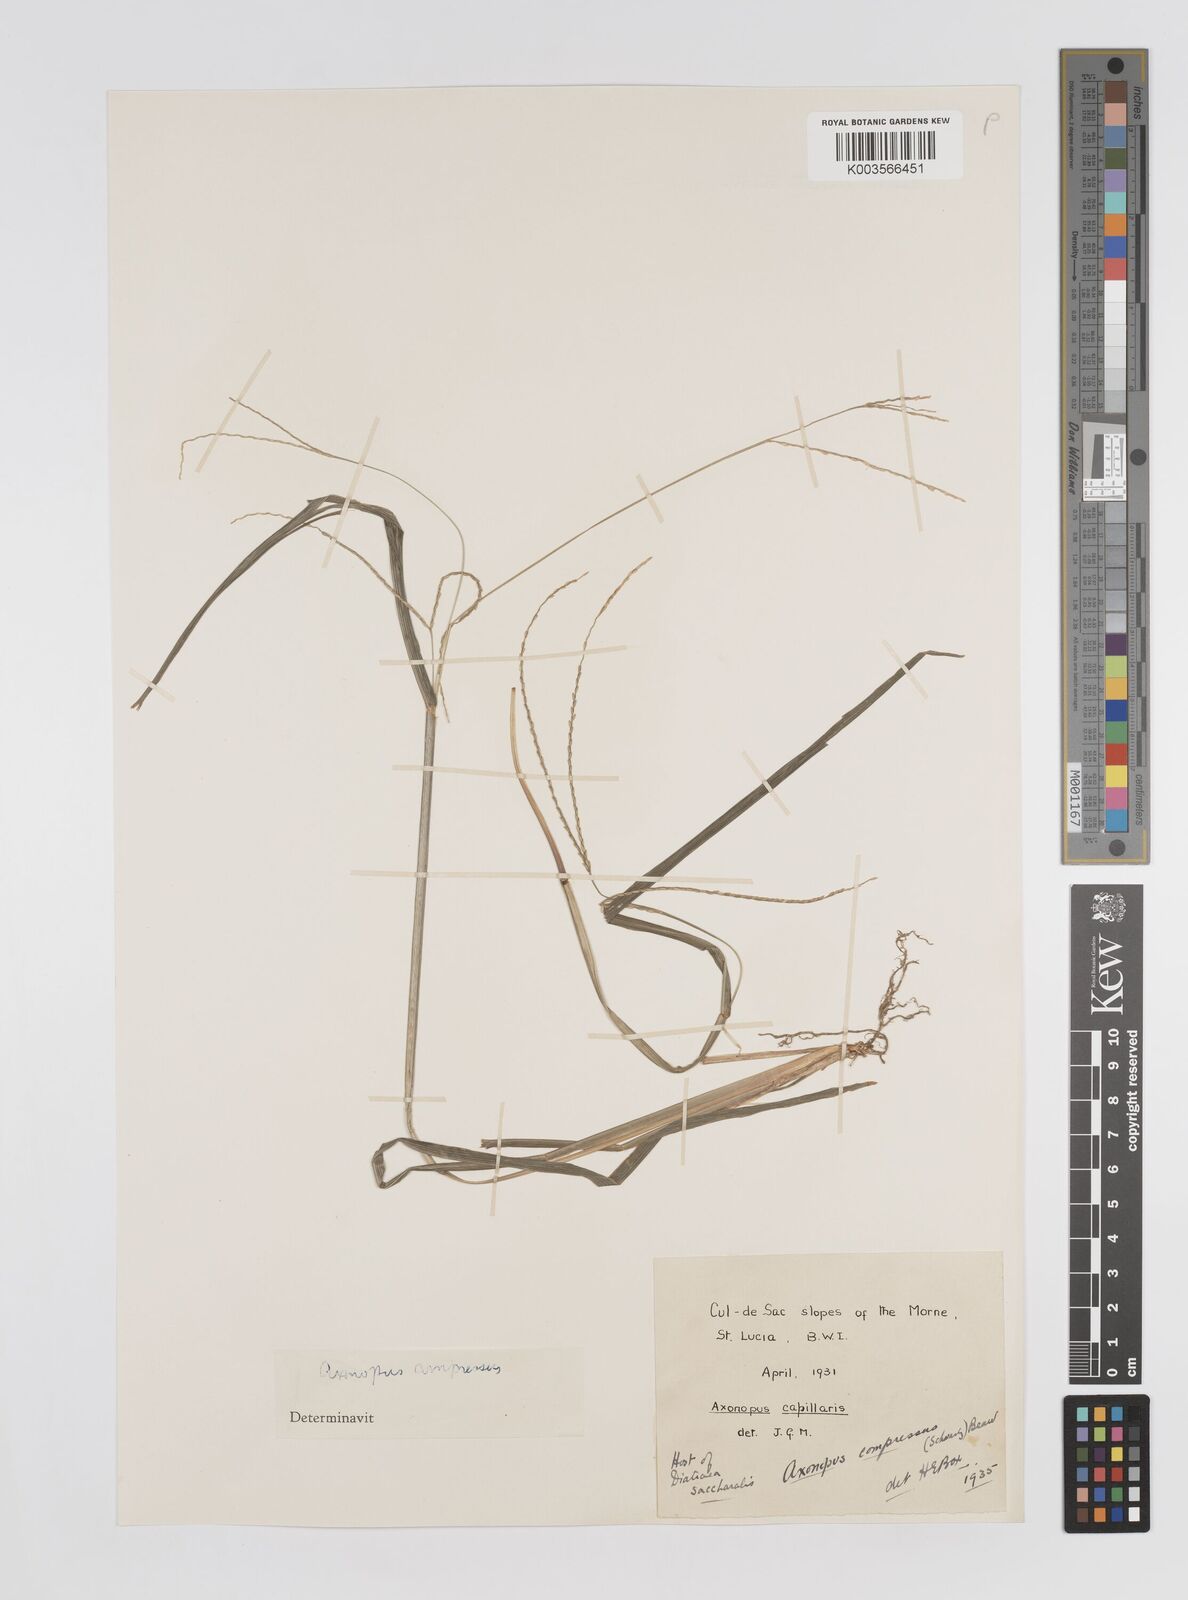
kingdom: Plantae
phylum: Tracheophyta
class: Liliopsida
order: Poales
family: Poaceae
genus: Axonopus
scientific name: Axonopus compressus
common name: American carpet grass
